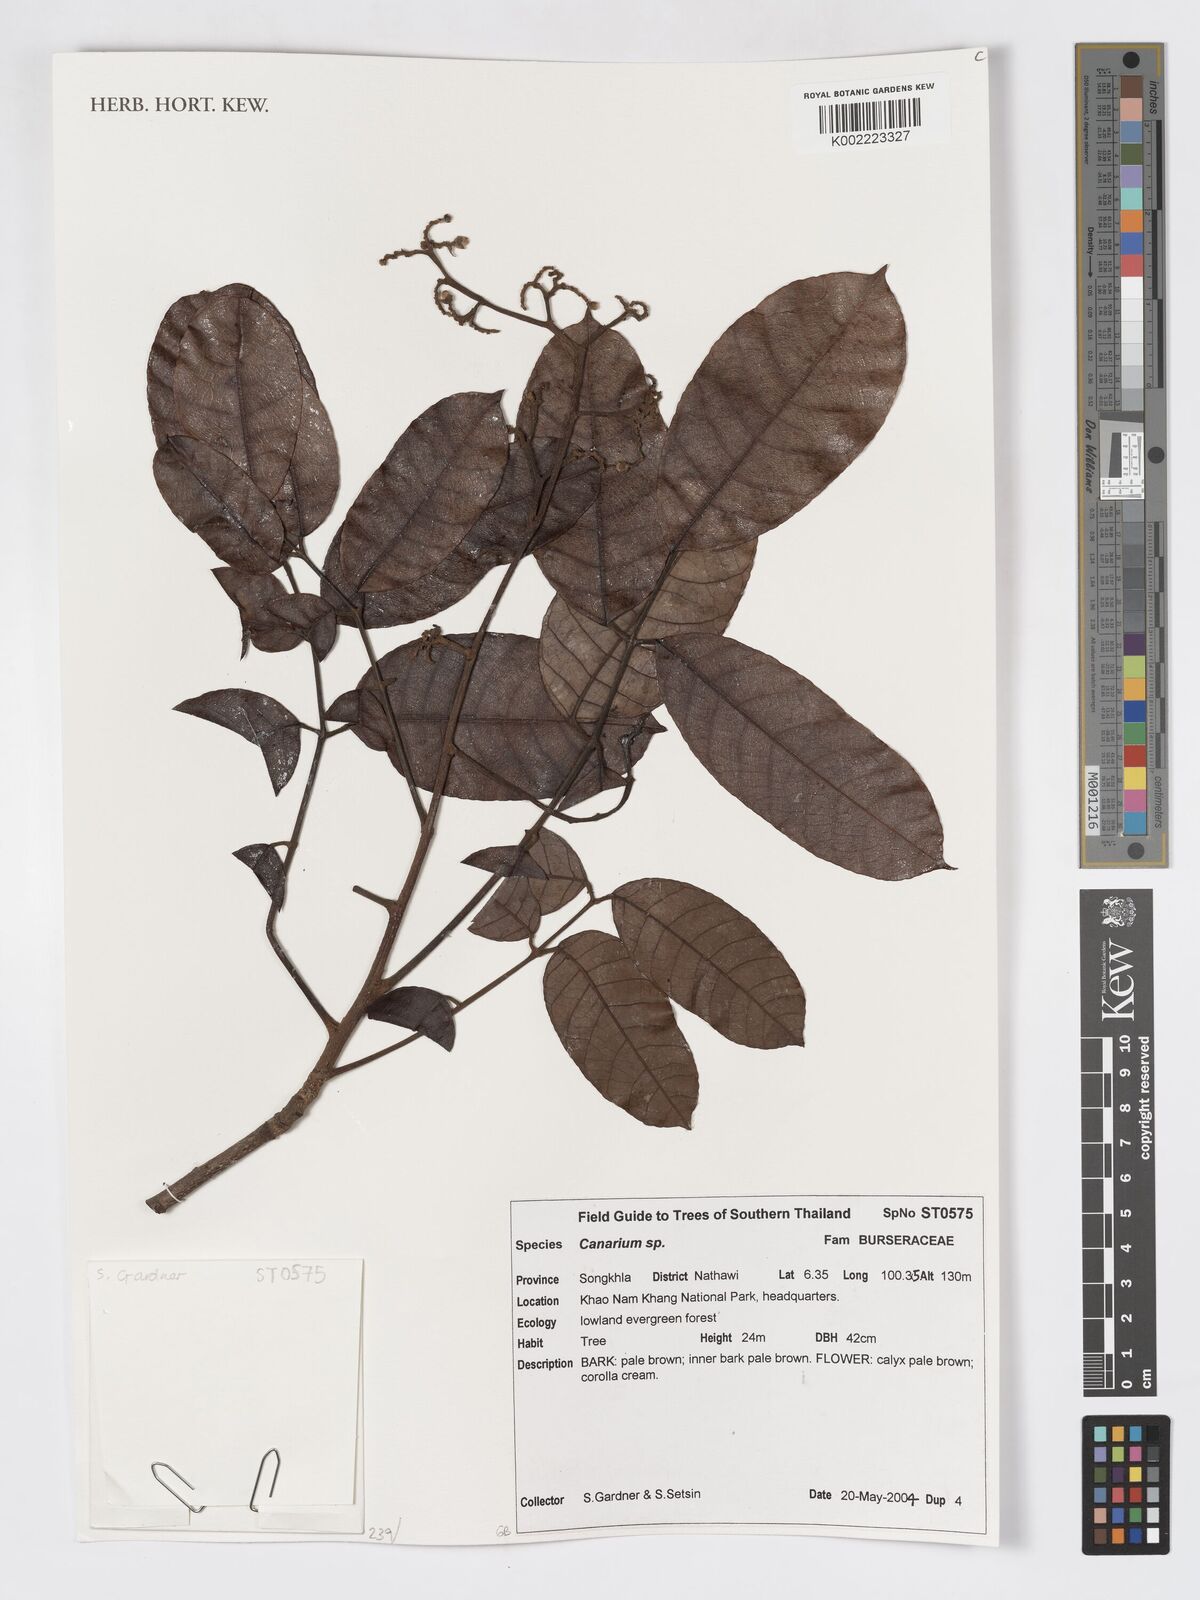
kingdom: Plantae
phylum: Tracheophyta
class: Magnoliopsida
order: Sapindales
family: Burseraceae
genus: Canarium
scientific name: Canarium
